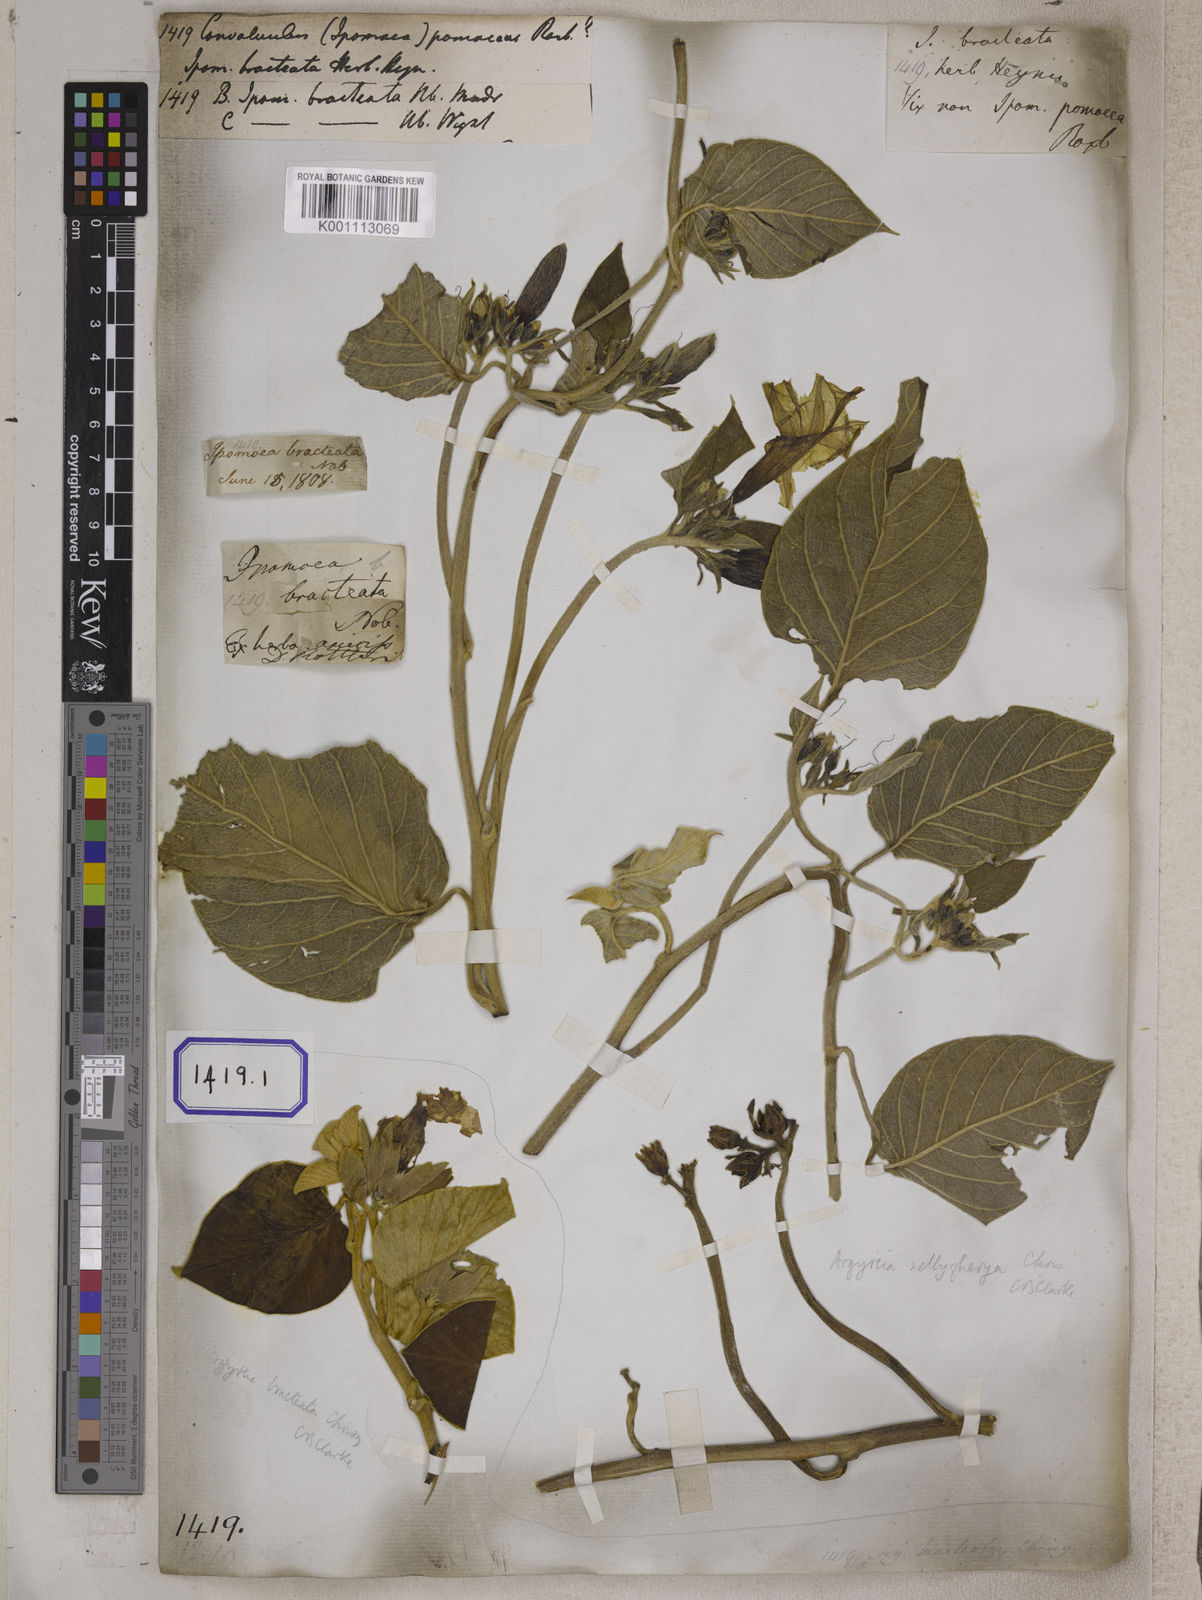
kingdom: Plantae
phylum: Tracheophyta
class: Magnoliopsida
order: Solanales
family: Convolvulaceae
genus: Argyreia
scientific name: Argyreia zeylanica
